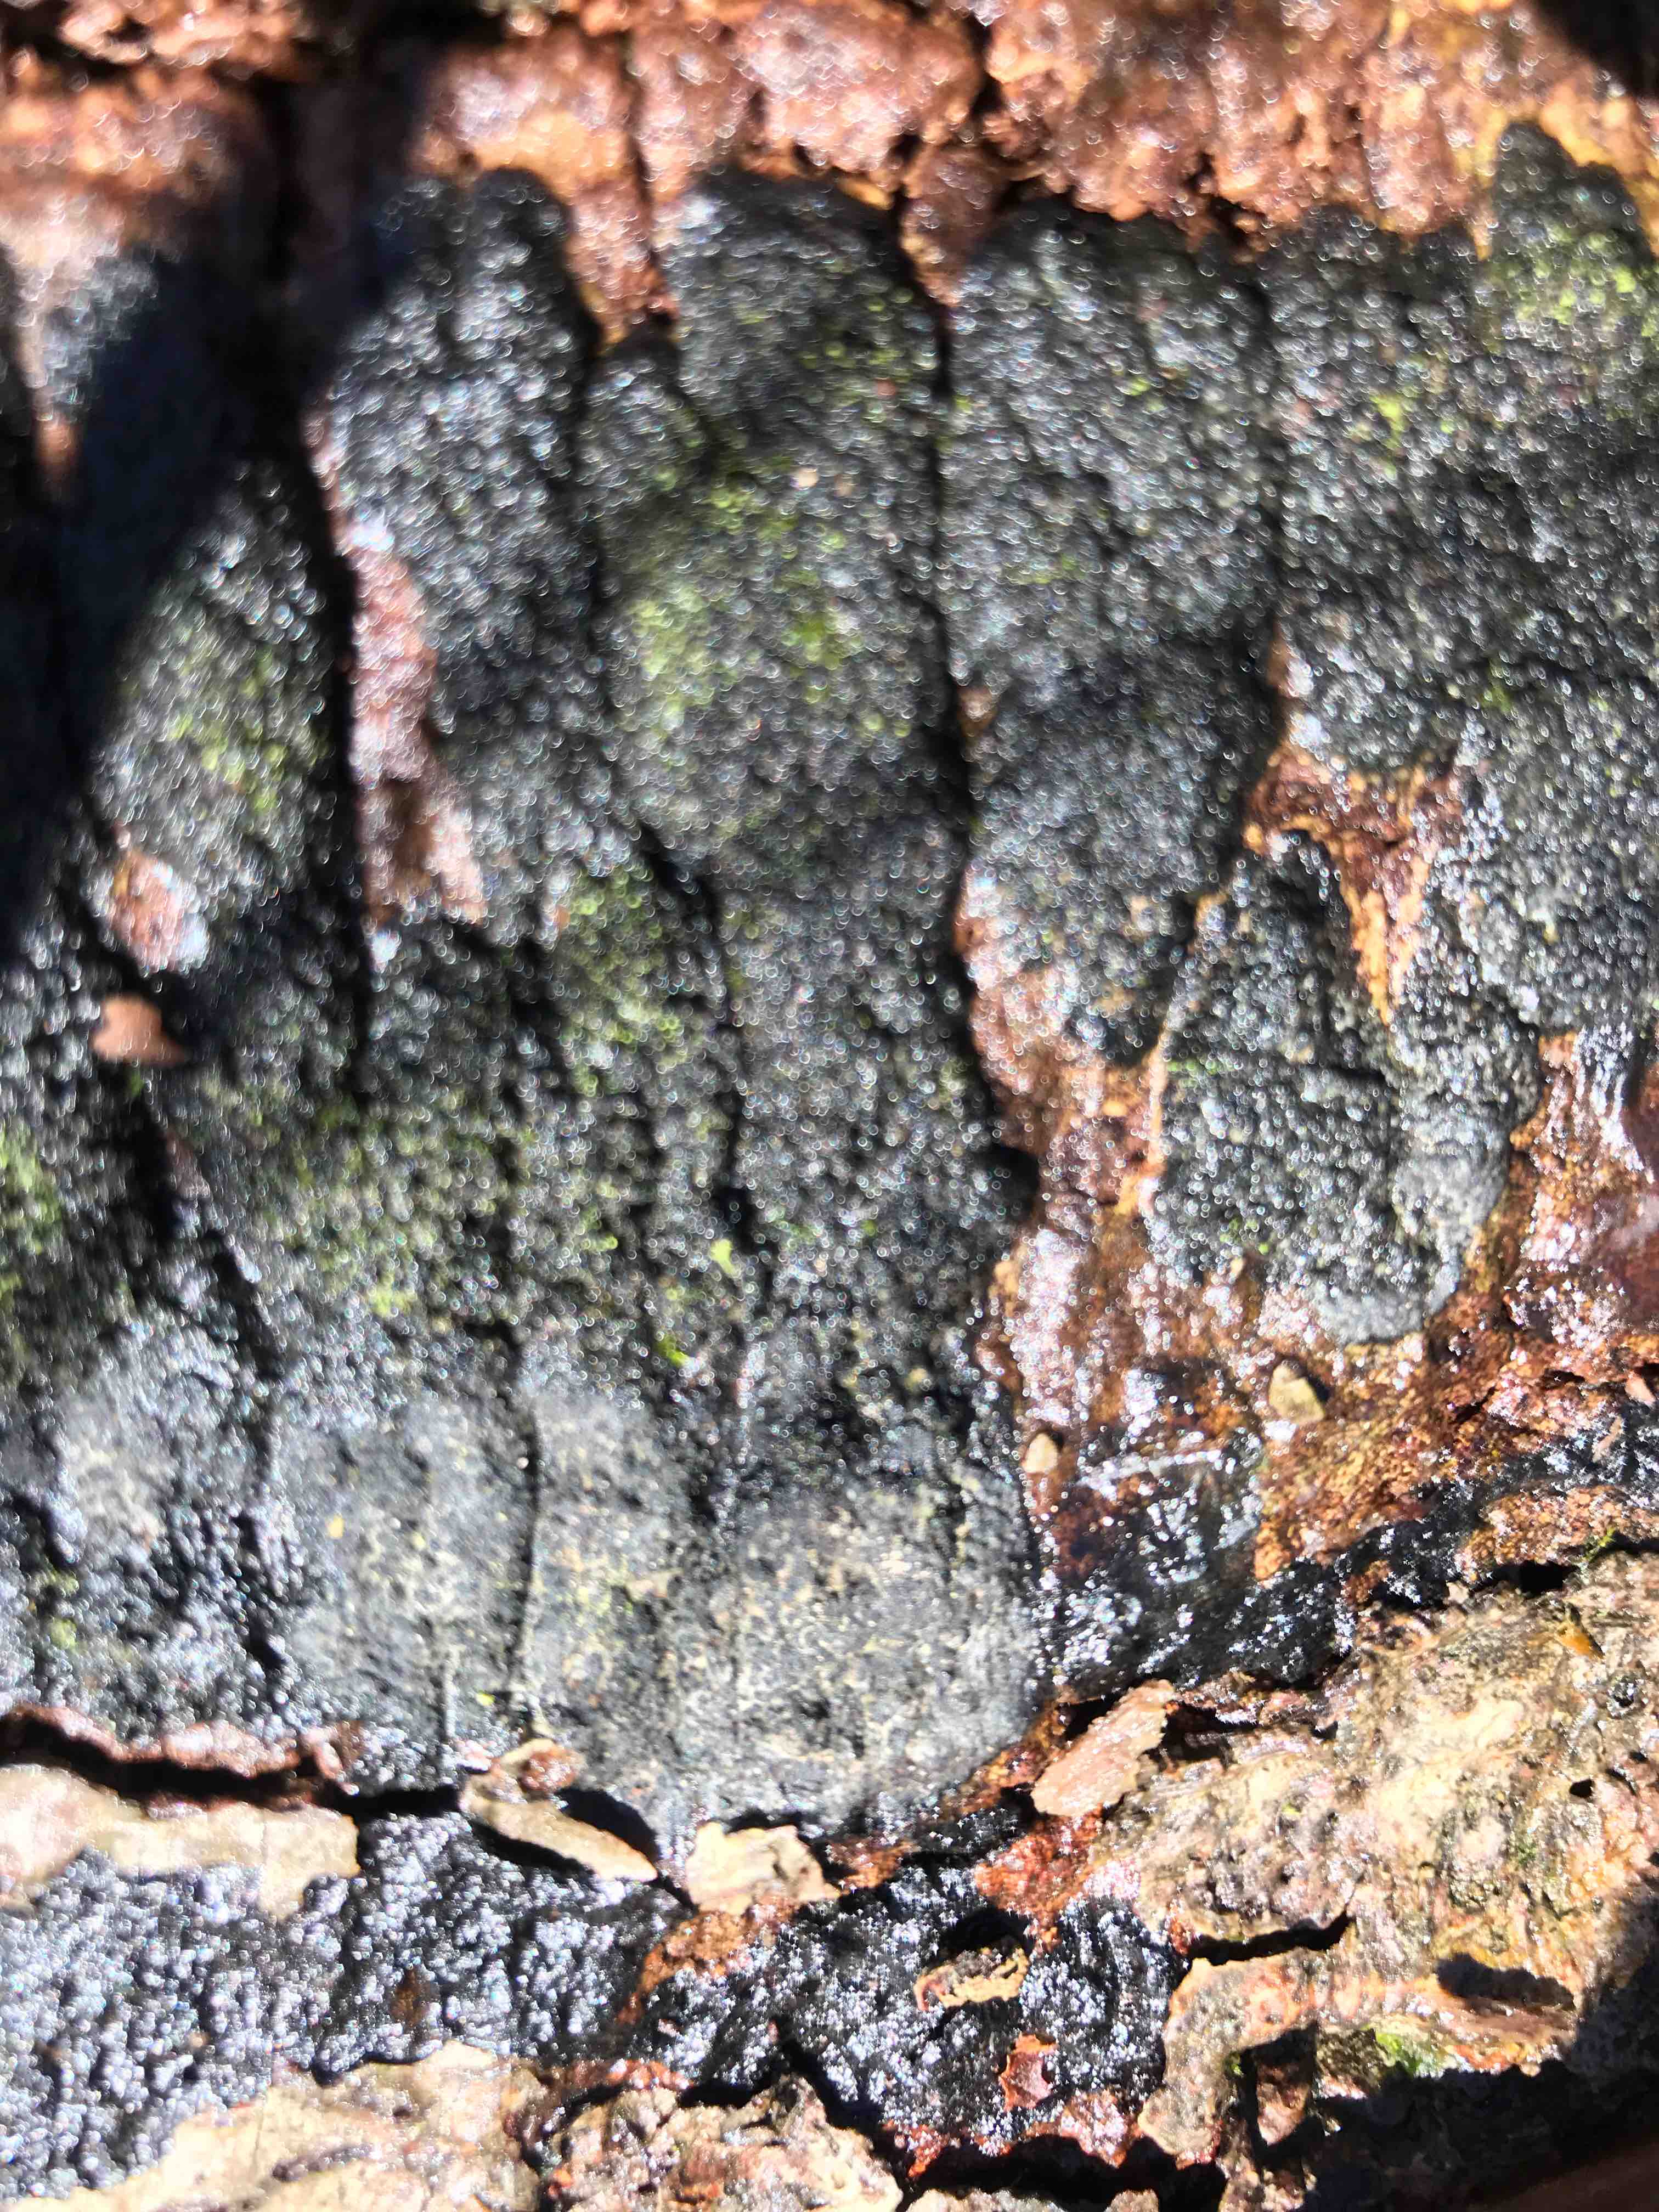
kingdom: Fungi
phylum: Ascomycota
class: Sordariomycetes
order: Xylariales
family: Diatrypaceae
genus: Eutypa
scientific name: Eutypa spinosa
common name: grov kulskorpe
